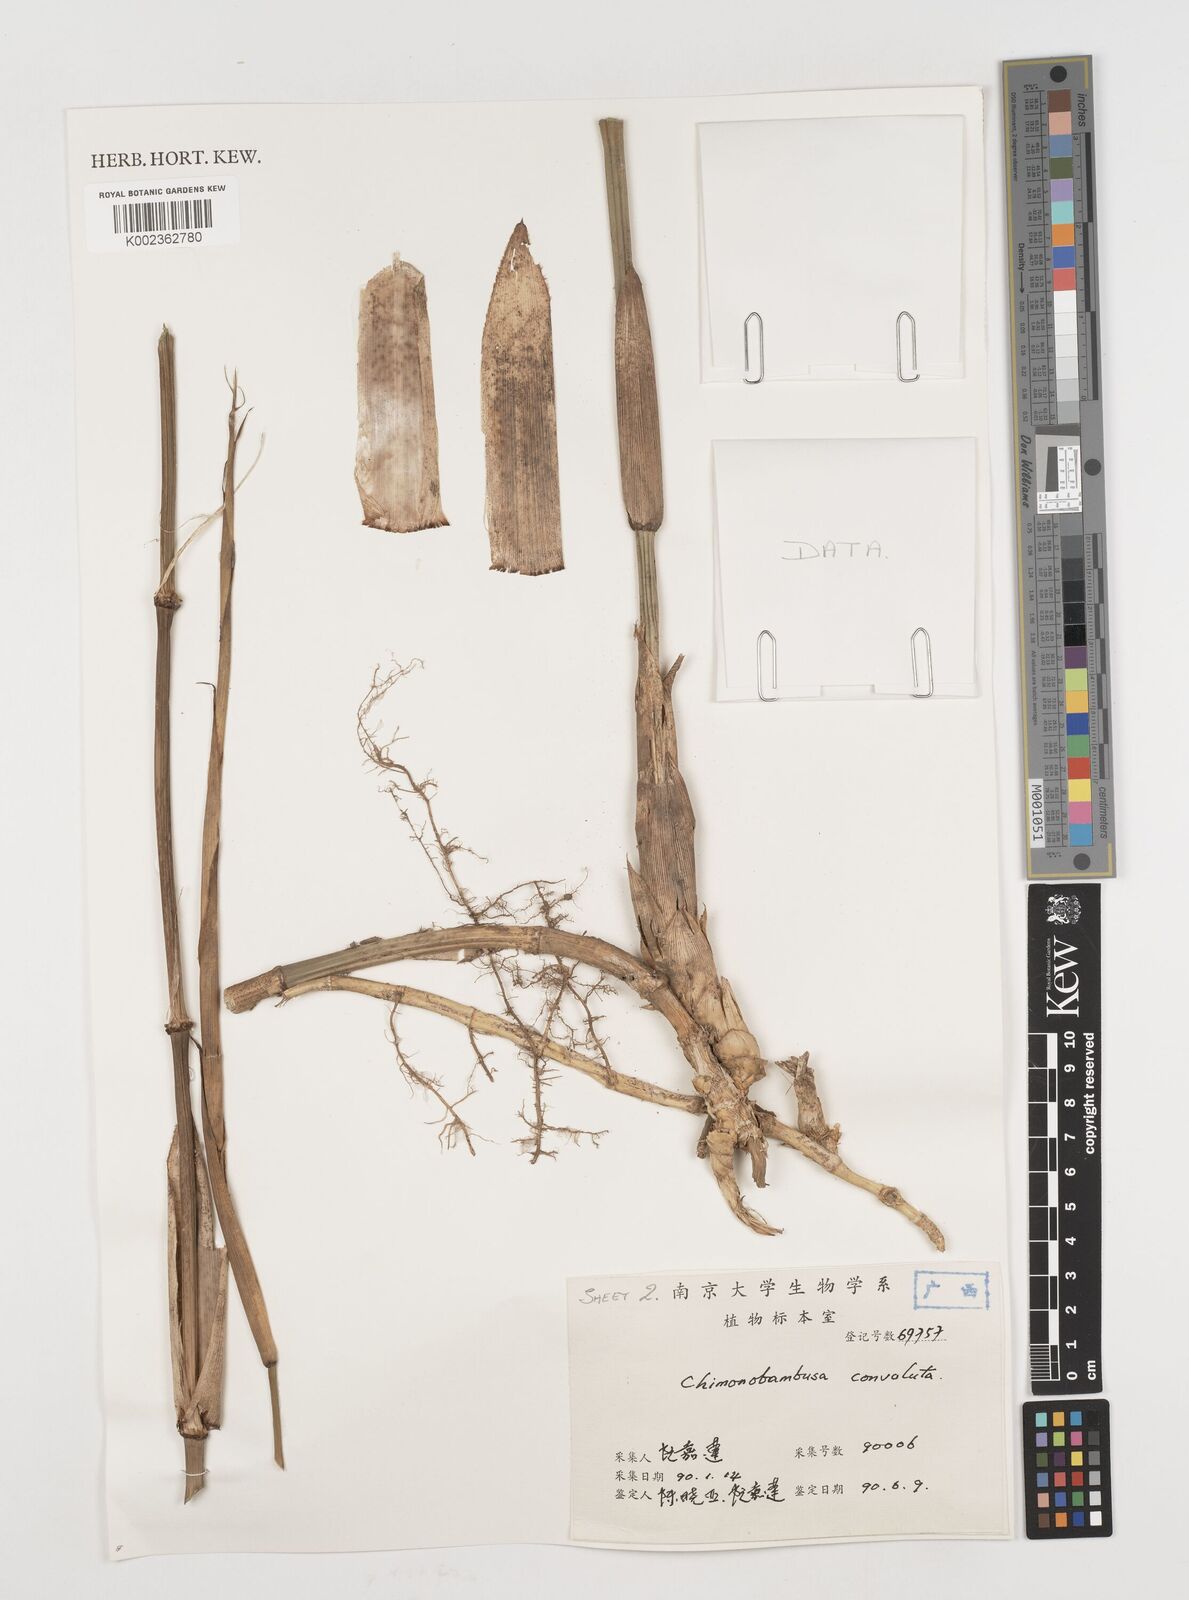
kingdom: Plantae
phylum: Tracheophyta
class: Liliopsida
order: Poales
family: Poaceae
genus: Chimonobambusa
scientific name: Chimonobambusa convoluta
